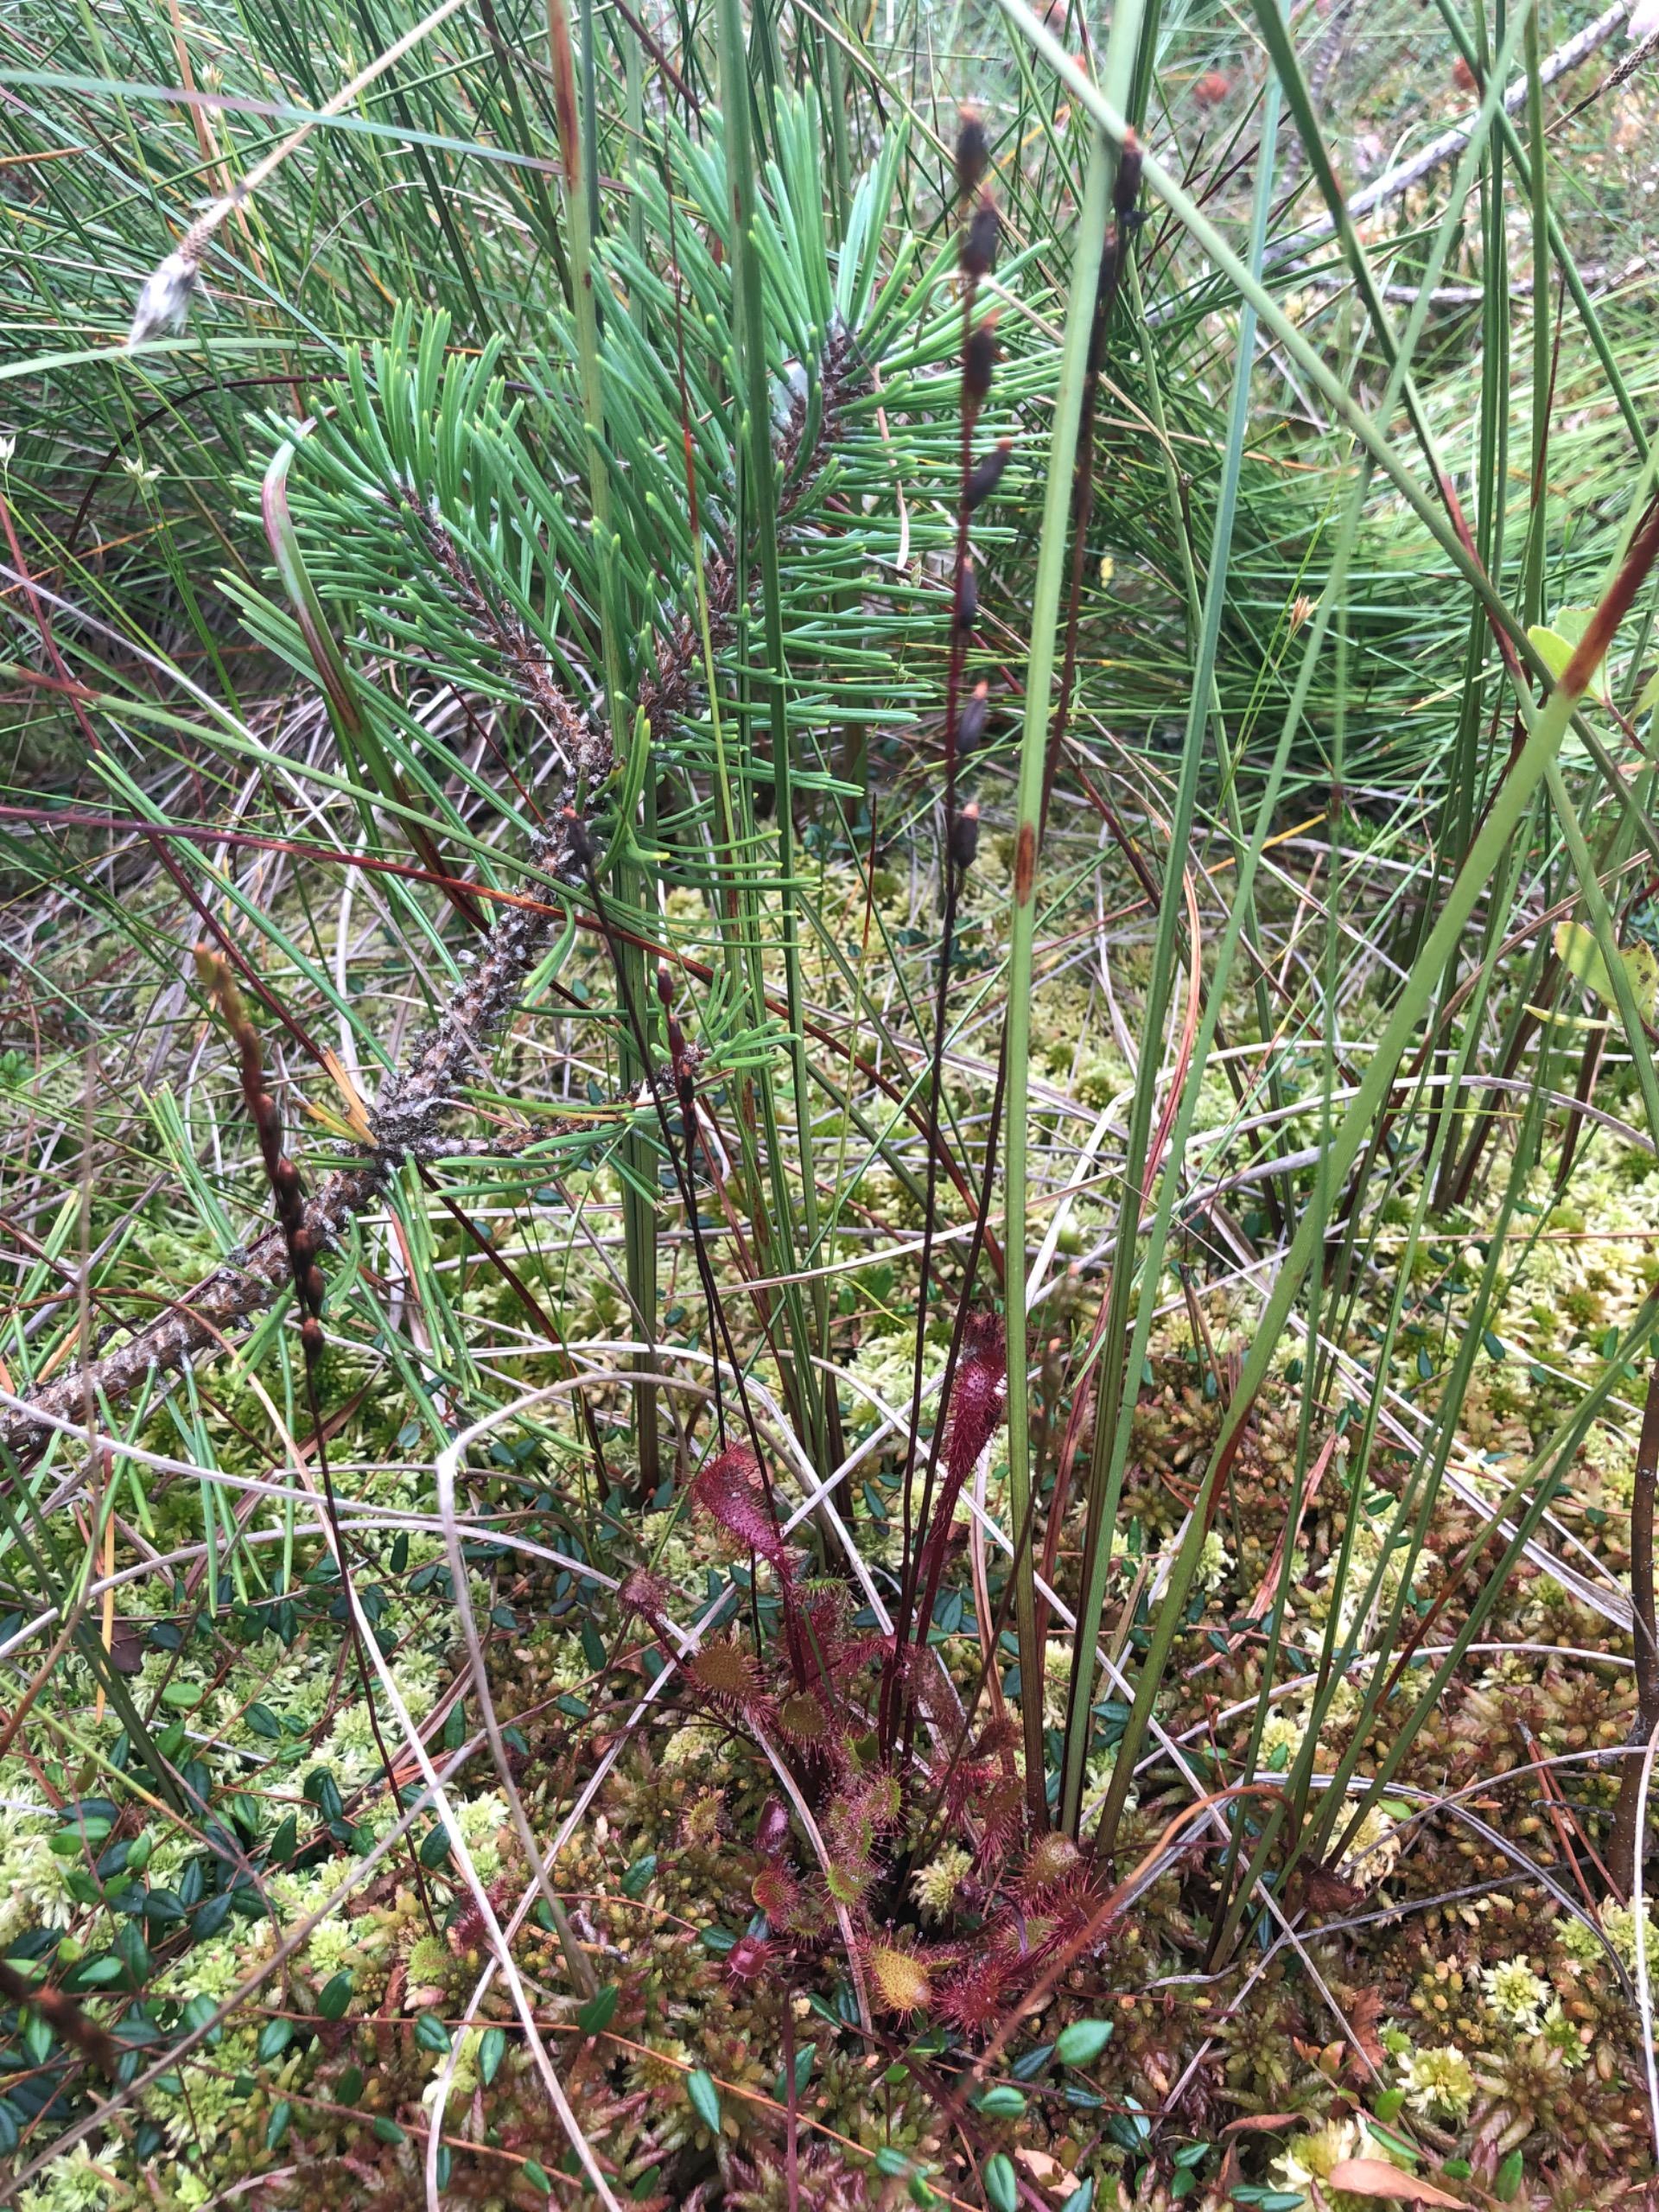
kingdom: Plantae
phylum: Tracheophyta
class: Magnoliopsida
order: Caryophyllales
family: Droseraceae
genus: Drosera
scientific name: Drosera anglica
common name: Langbladet soldug
